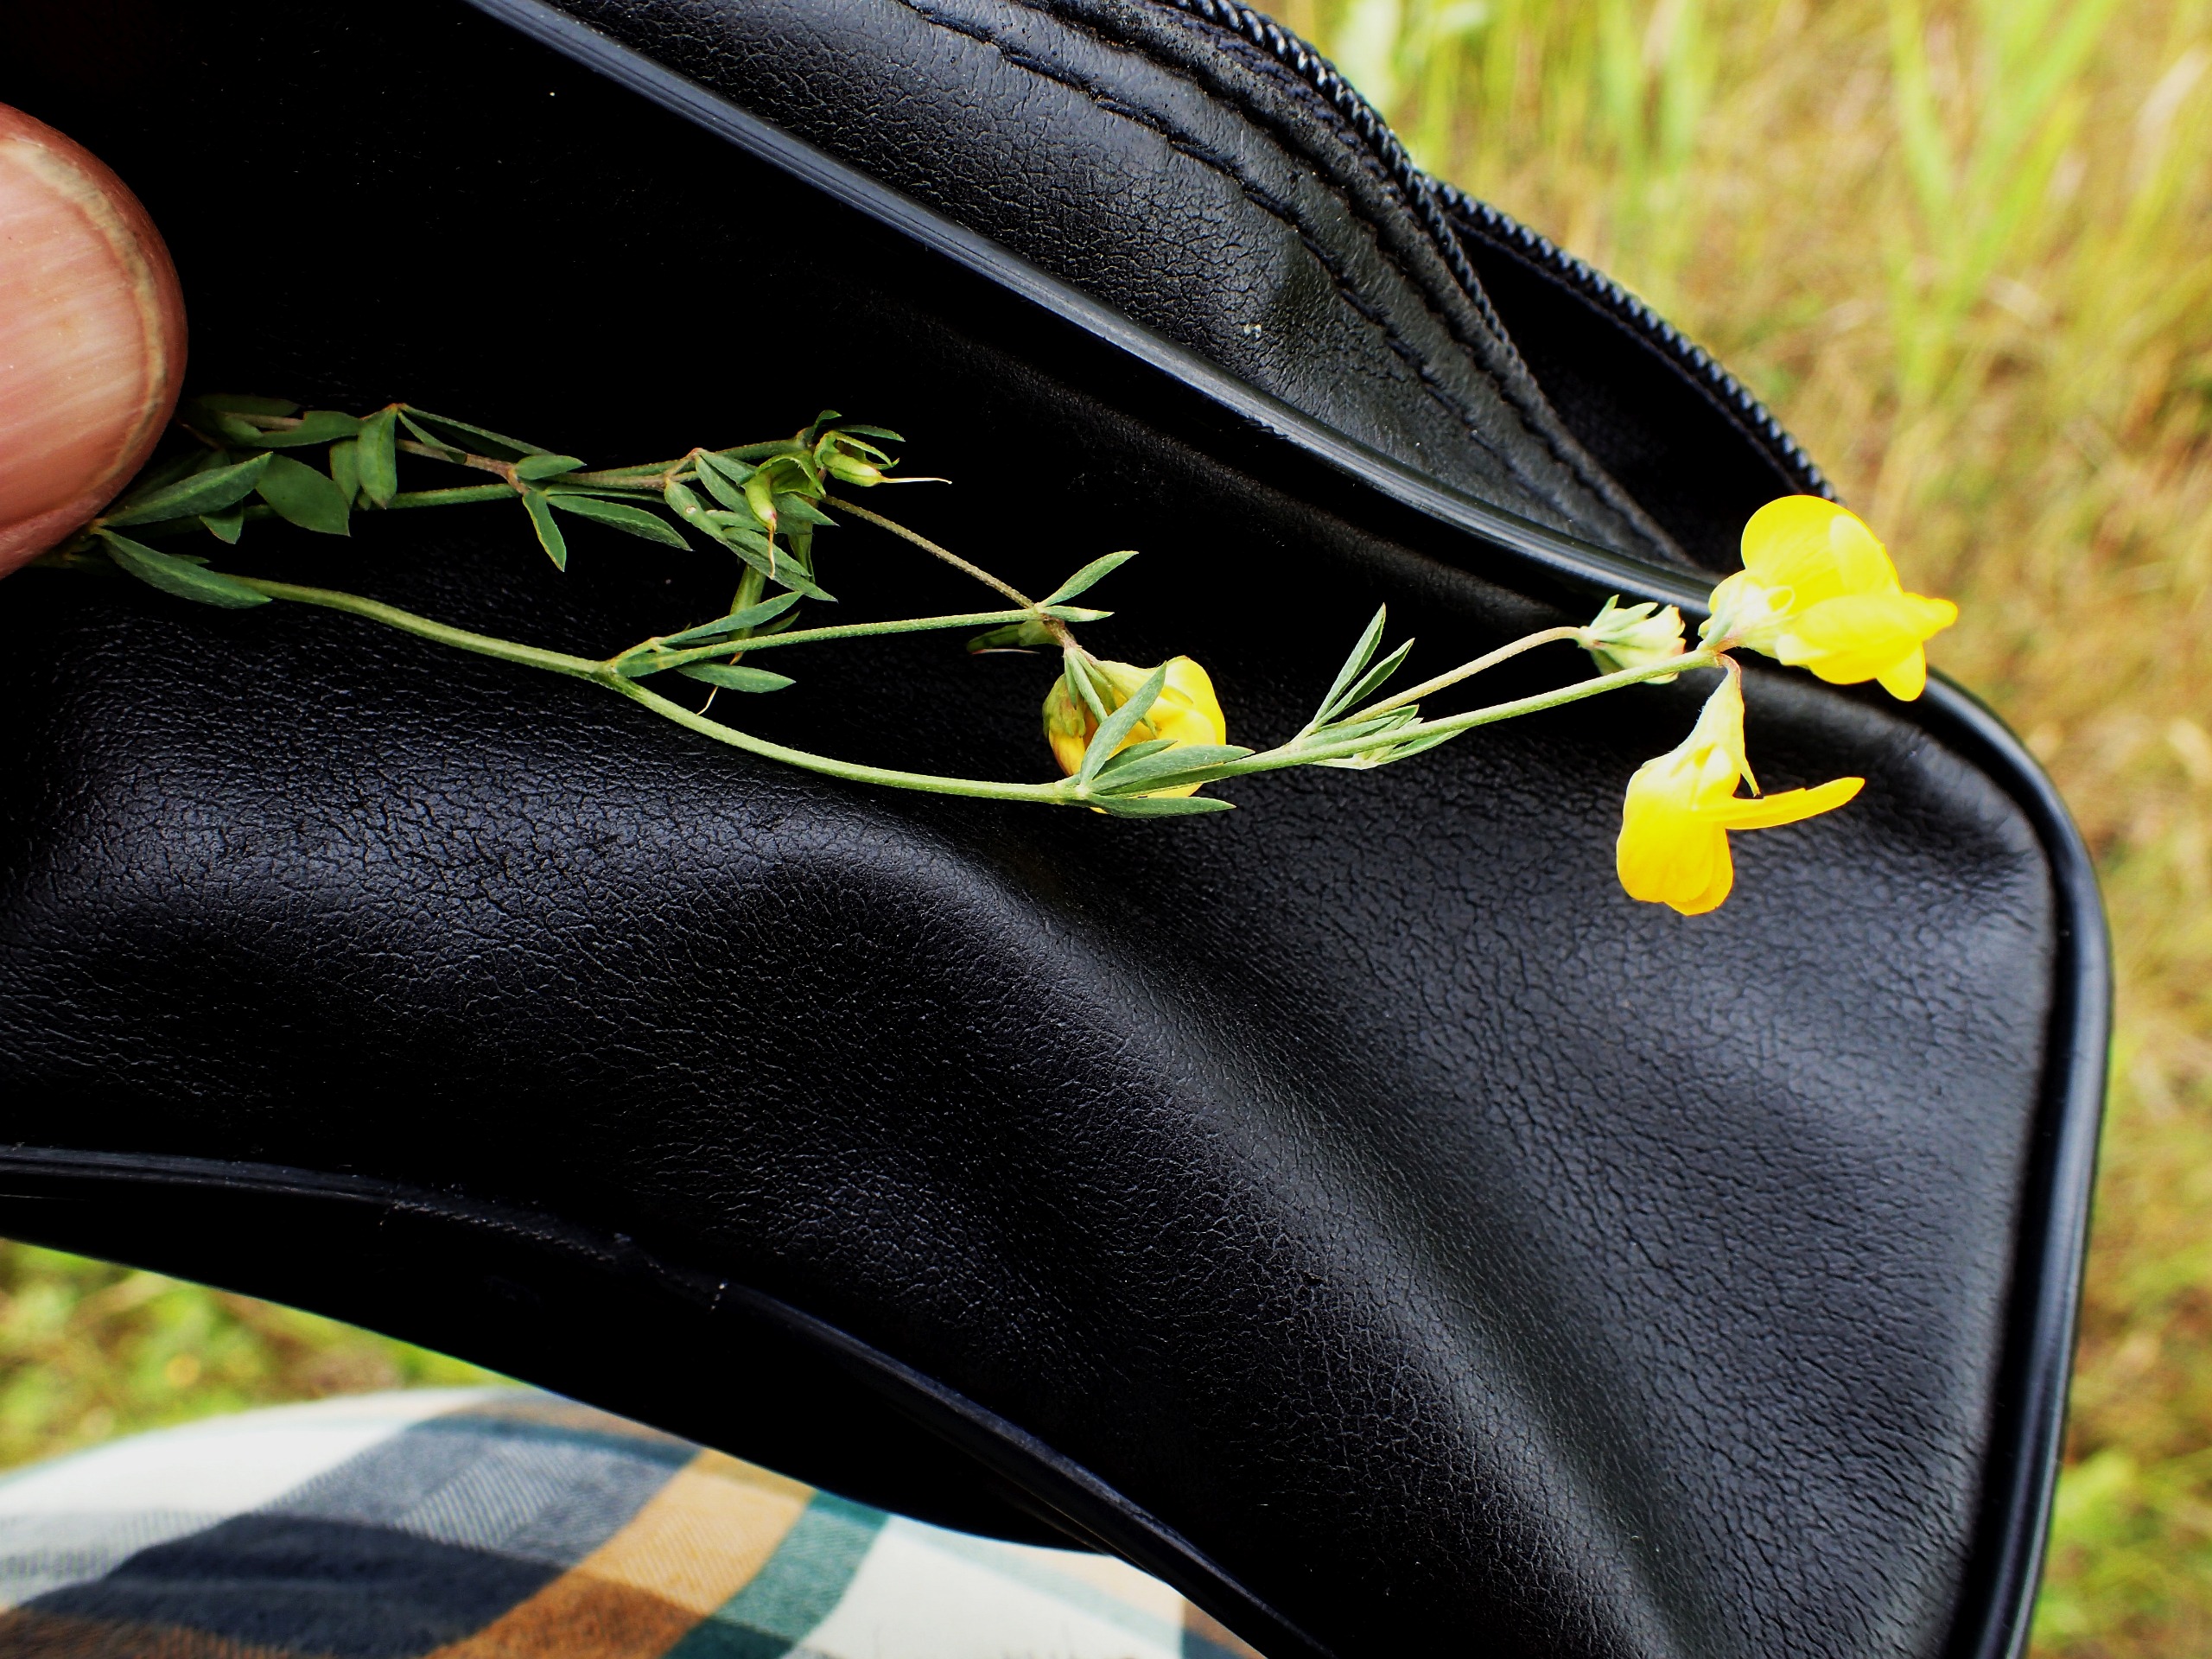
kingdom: Plantae
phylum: Tracheophyta
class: Magnoliopsida
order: Fabales
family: Fabaceae
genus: Lotus
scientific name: Lotus tenuis
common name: Smalbladet kællingetand
